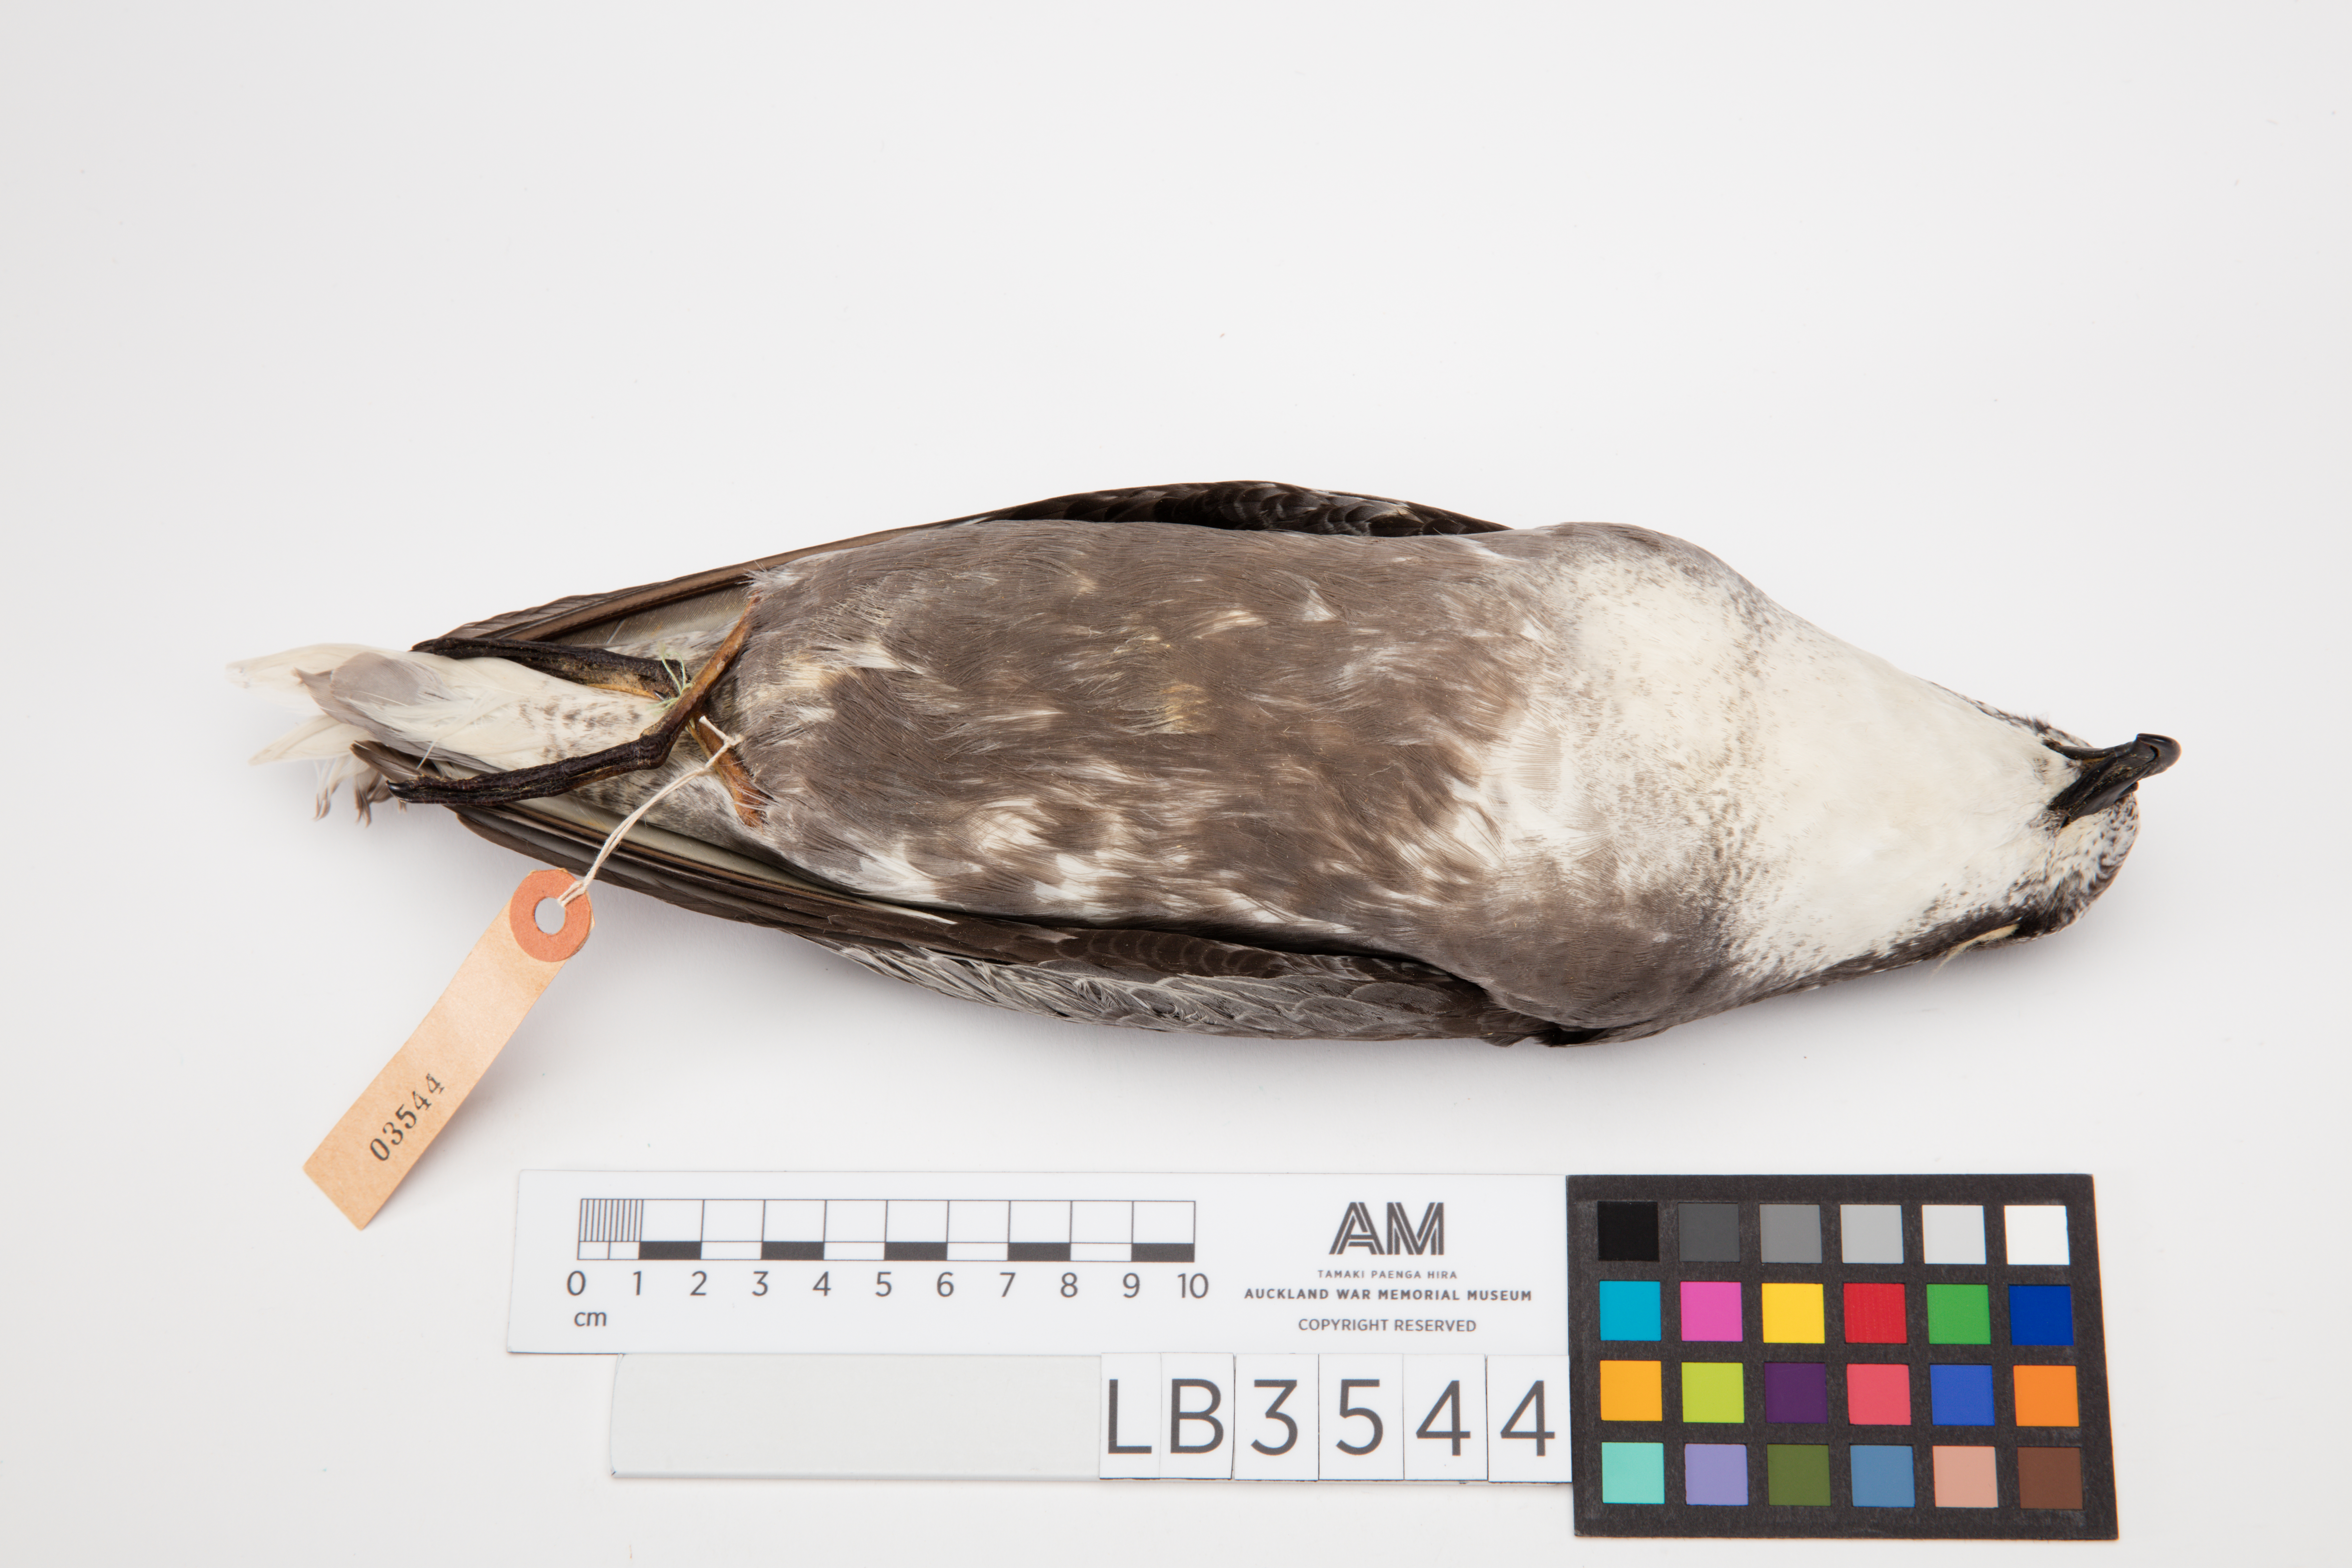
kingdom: Animalia
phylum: Chordata
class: Aves
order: Procellariiformes
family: Procellariidae
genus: Pterodroma
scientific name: Pterodroma inexpectata
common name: Mottled petrel
